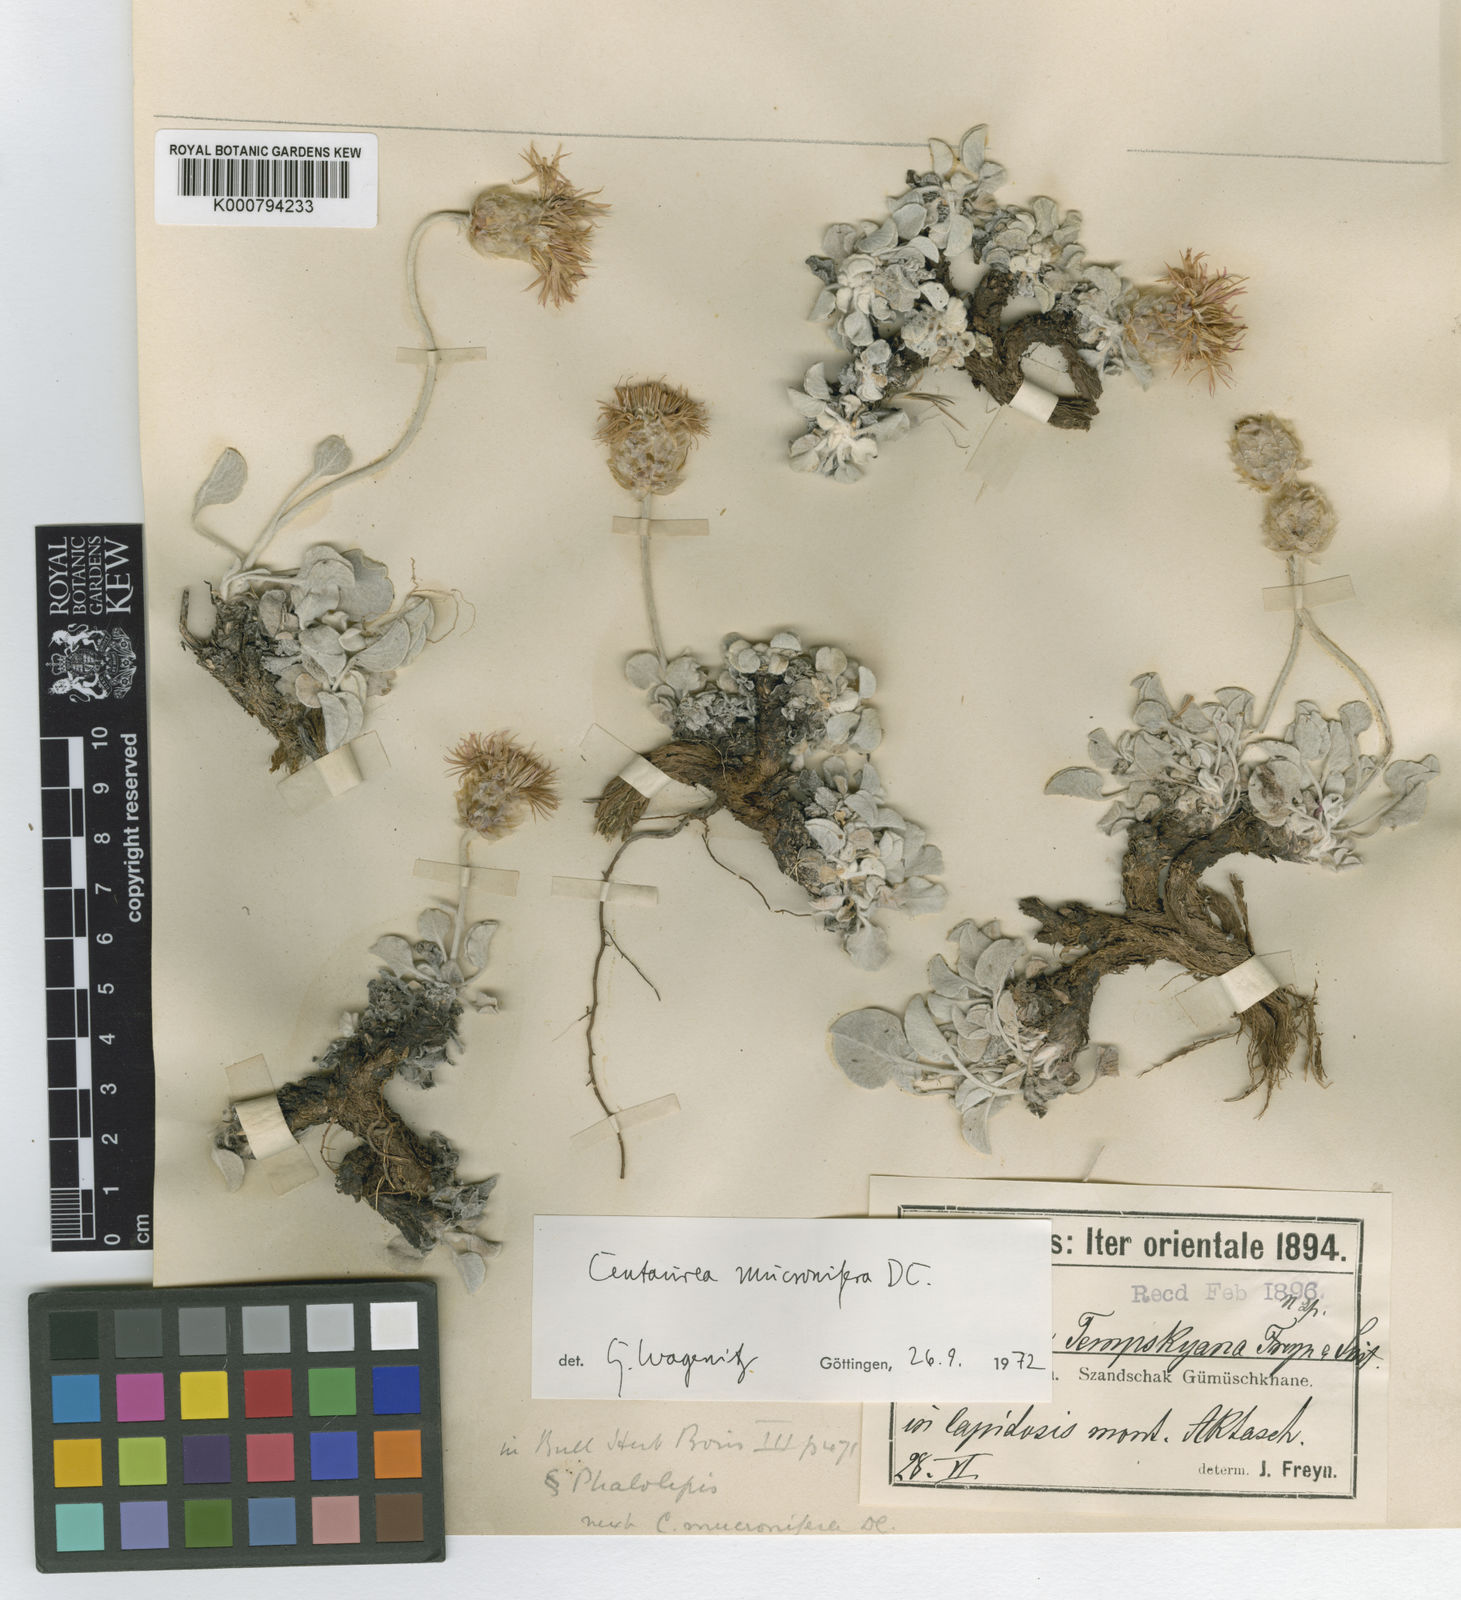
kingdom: Plantae
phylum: Tracheophyta
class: Magnoliopsida
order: Asterales
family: Asteraceae
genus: Psephellus
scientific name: Psephellus mucronifer
